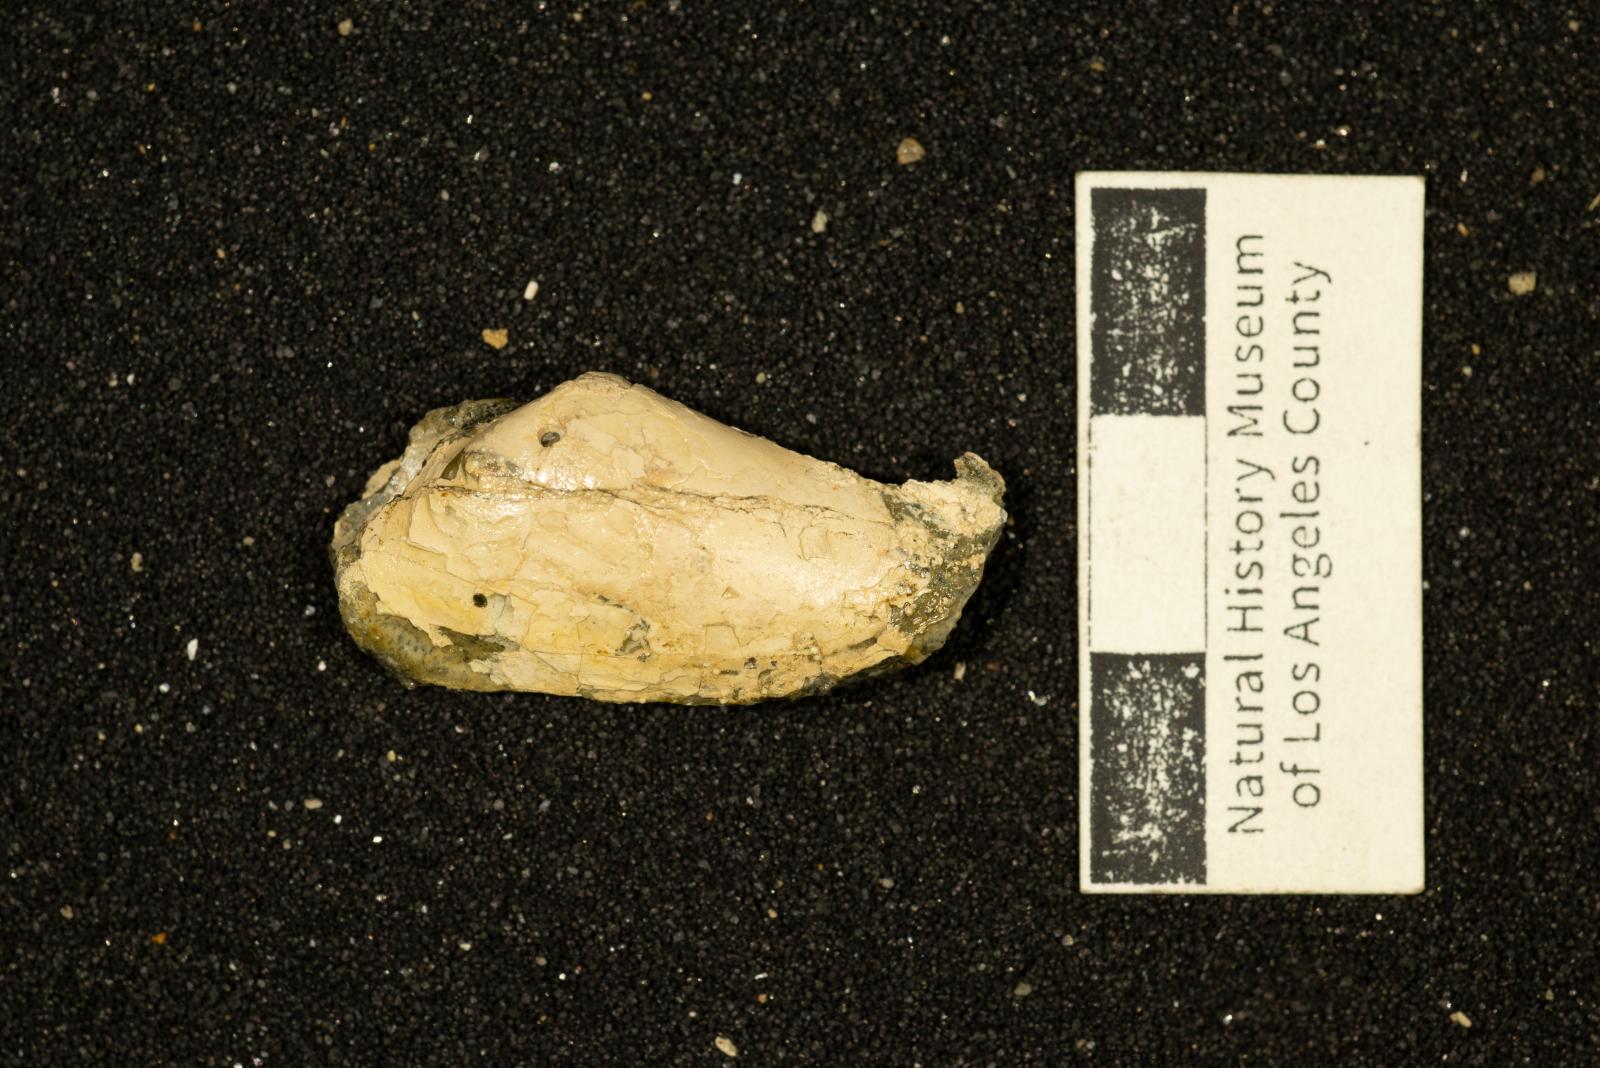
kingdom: Animalia
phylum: Mollusca
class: Bivalvia
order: Venerida
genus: Notodonax
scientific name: Notodonax hsui
